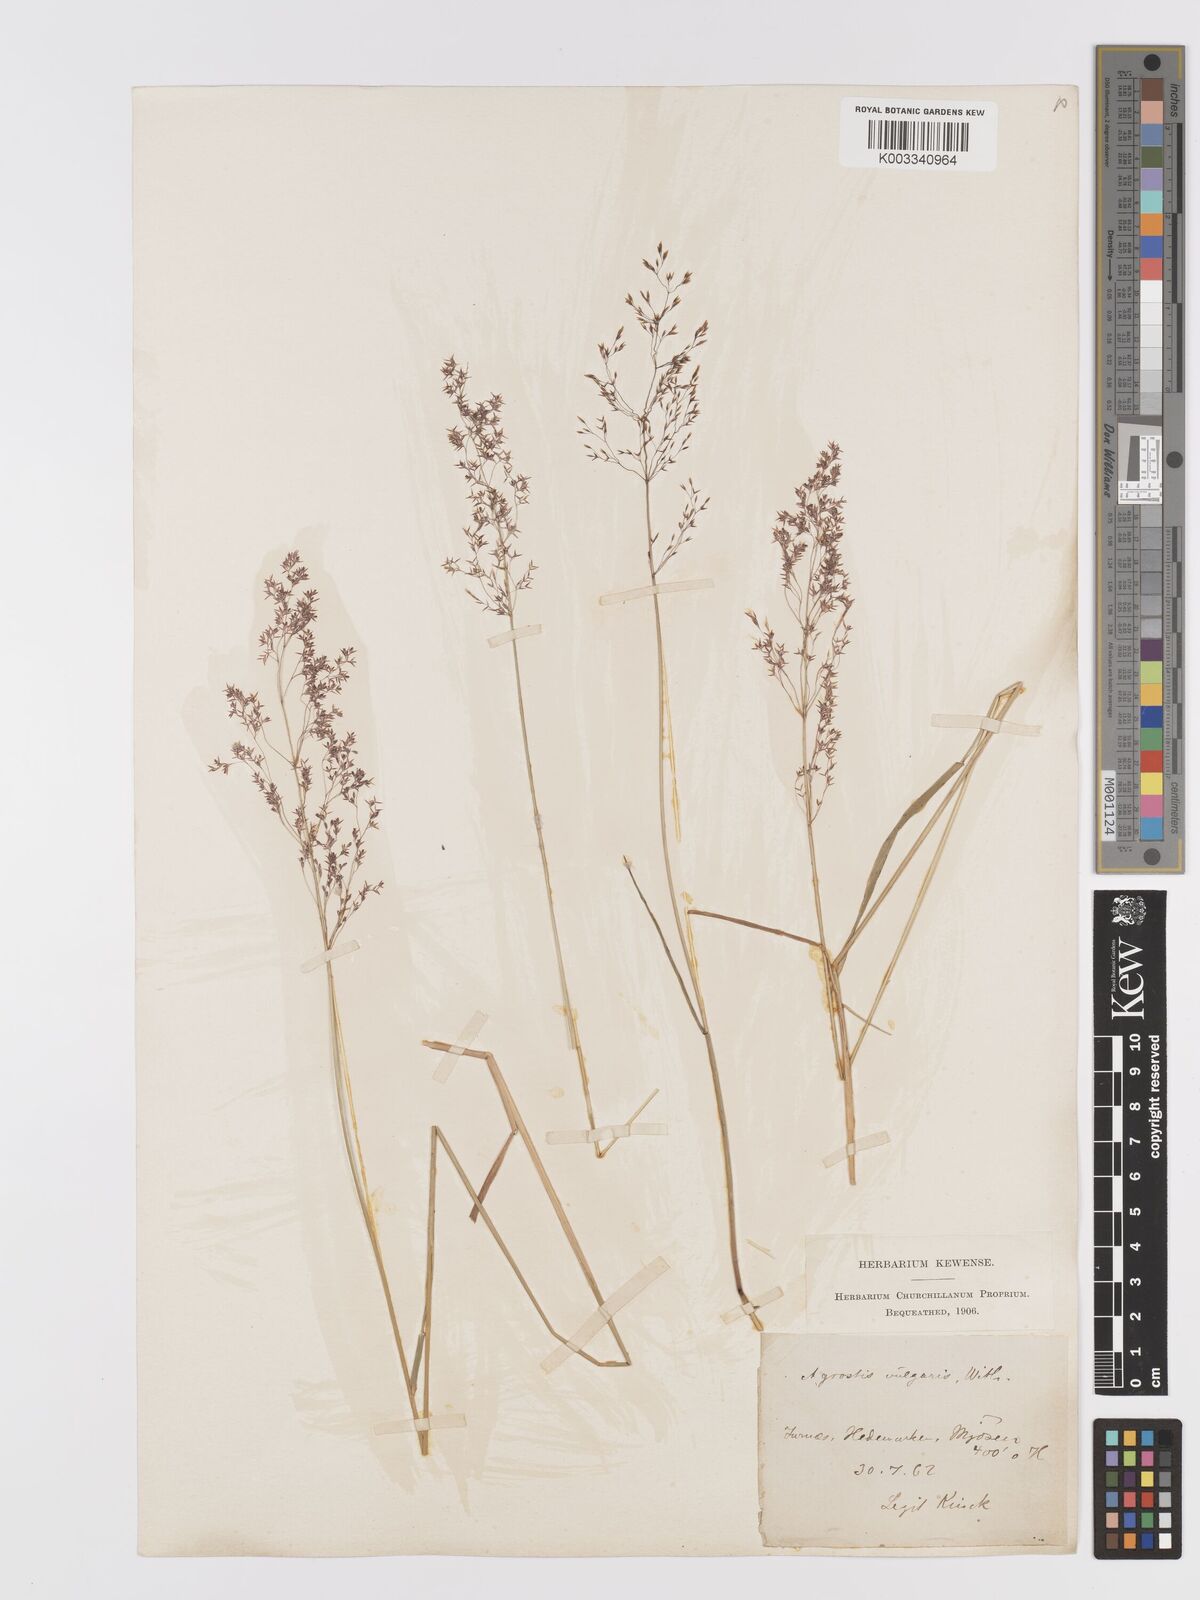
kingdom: Plantae
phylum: Tracheophyta
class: Liliopsida
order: Poales
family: Poaceae
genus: Agrostis
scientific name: Agrostis capillaris
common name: Colonial bentgrass
